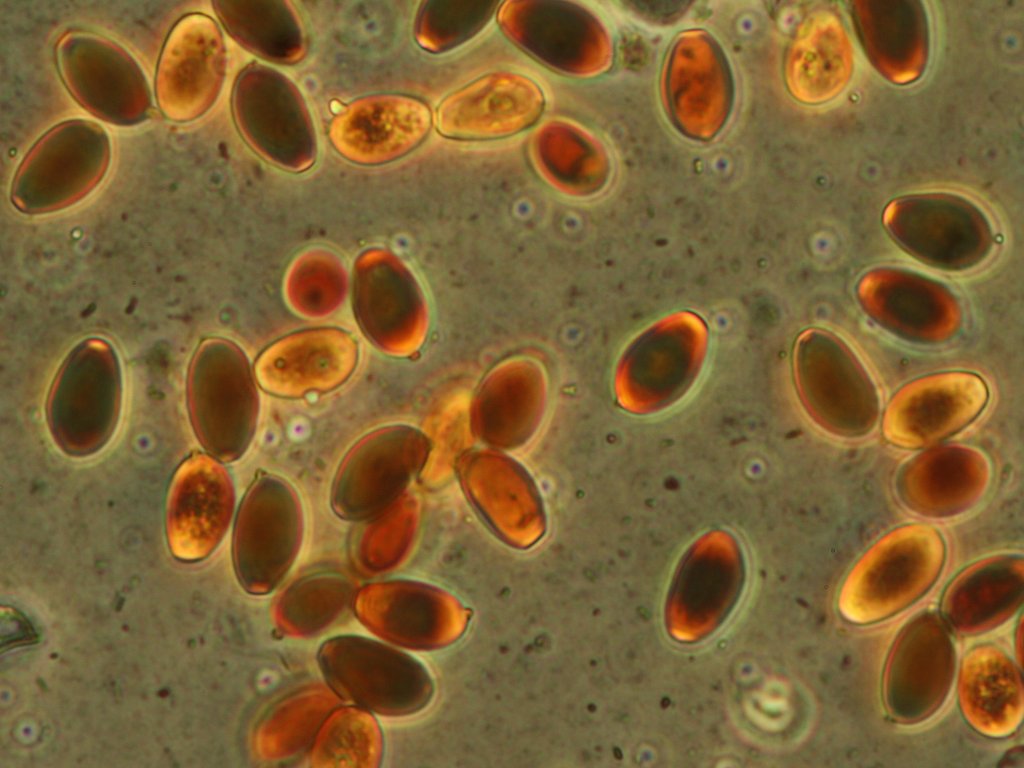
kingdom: Fungi
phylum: Basidiomycota
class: Agaricomycetes
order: Agaricales
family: Psathyrellaceae
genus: Psathyrella
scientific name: Psathyrella bipellis
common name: vinrød mørkhat
